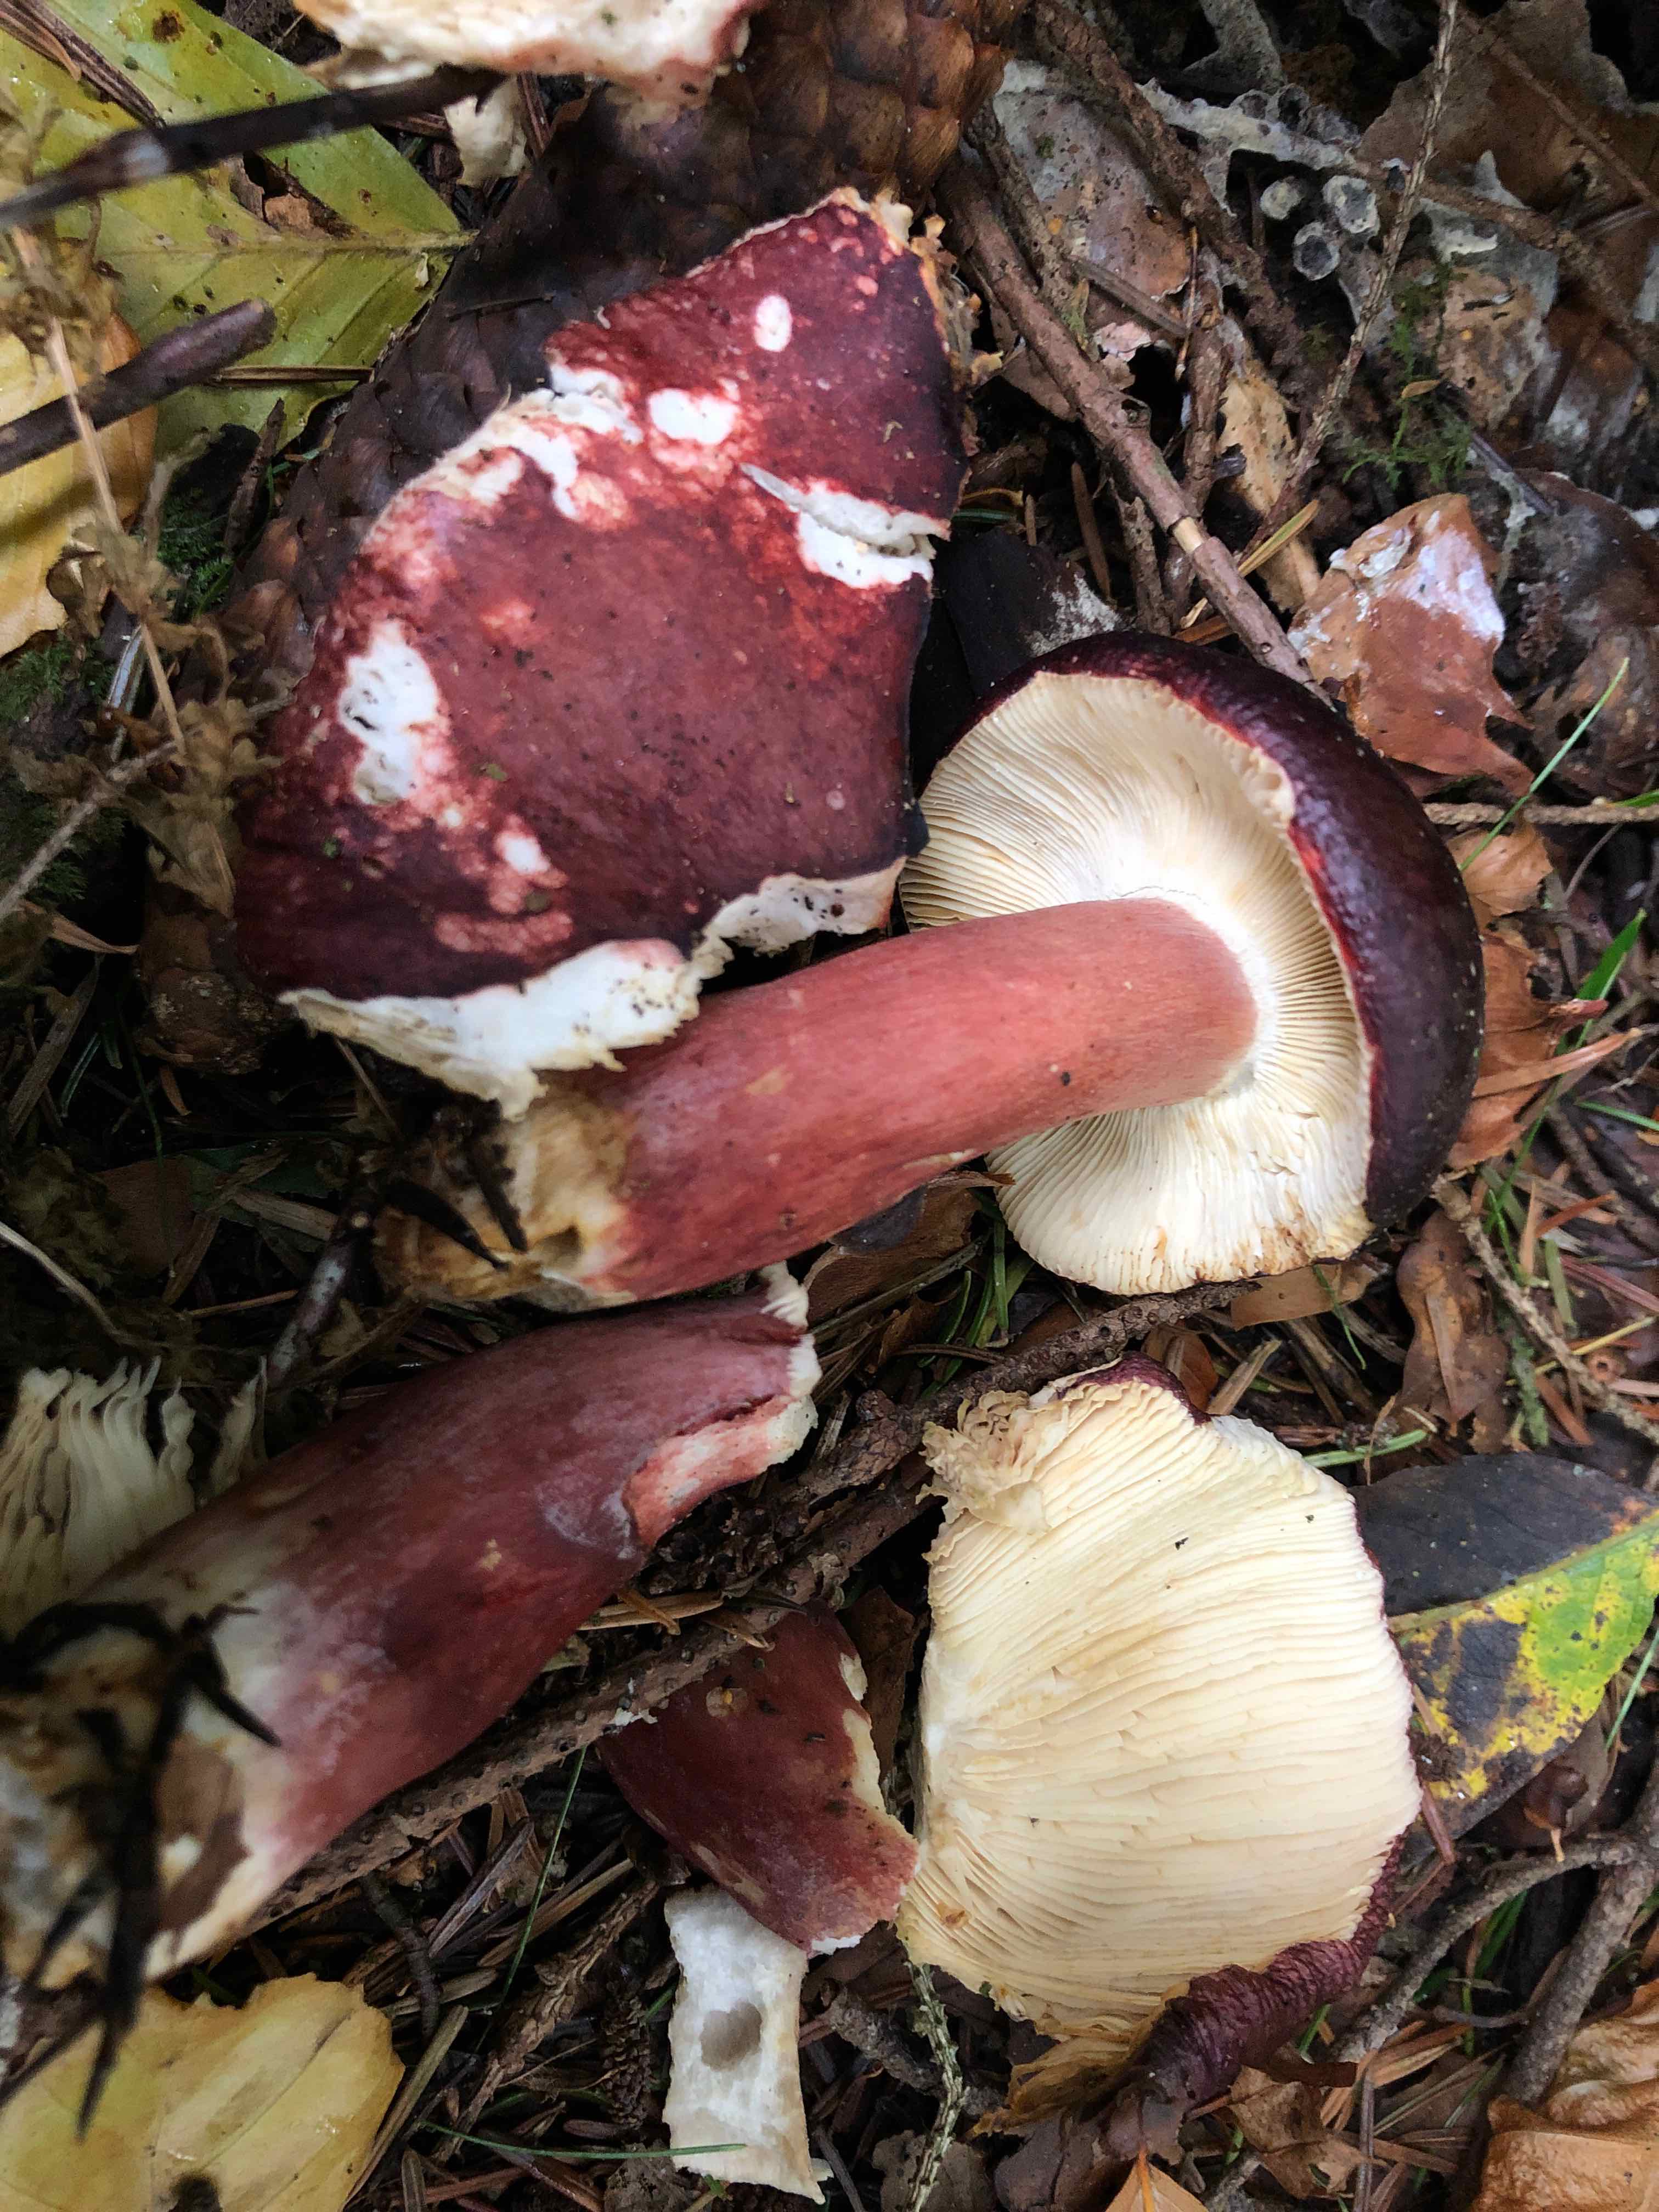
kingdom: Fungi
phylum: Basidiomycota
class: Agaricomycetes
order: Russulales
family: Russulaceae
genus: Russula
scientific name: Russula queletii
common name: Quélets skørhat
